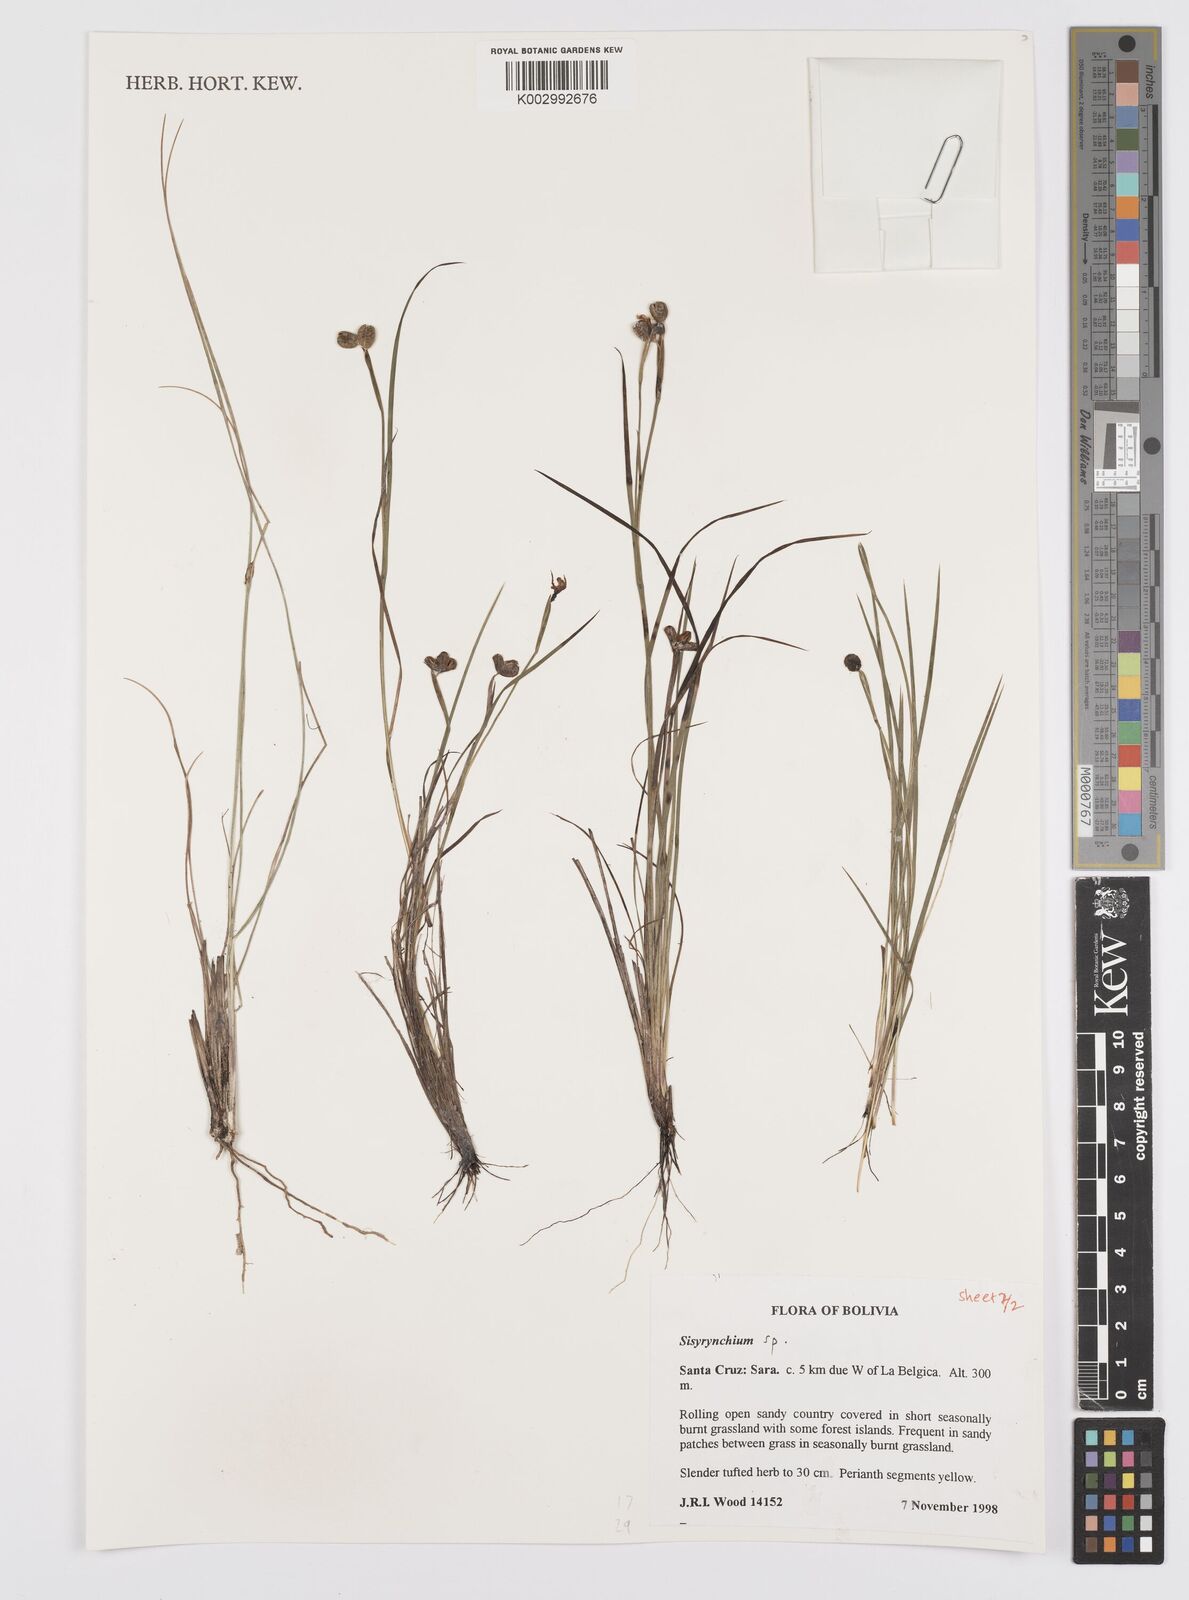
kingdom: Plantae
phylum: Tracheophyta
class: Liliopsida
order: Asparagales
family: Iridaceae
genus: Sisyrinchium
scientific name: Sisyrinchium
